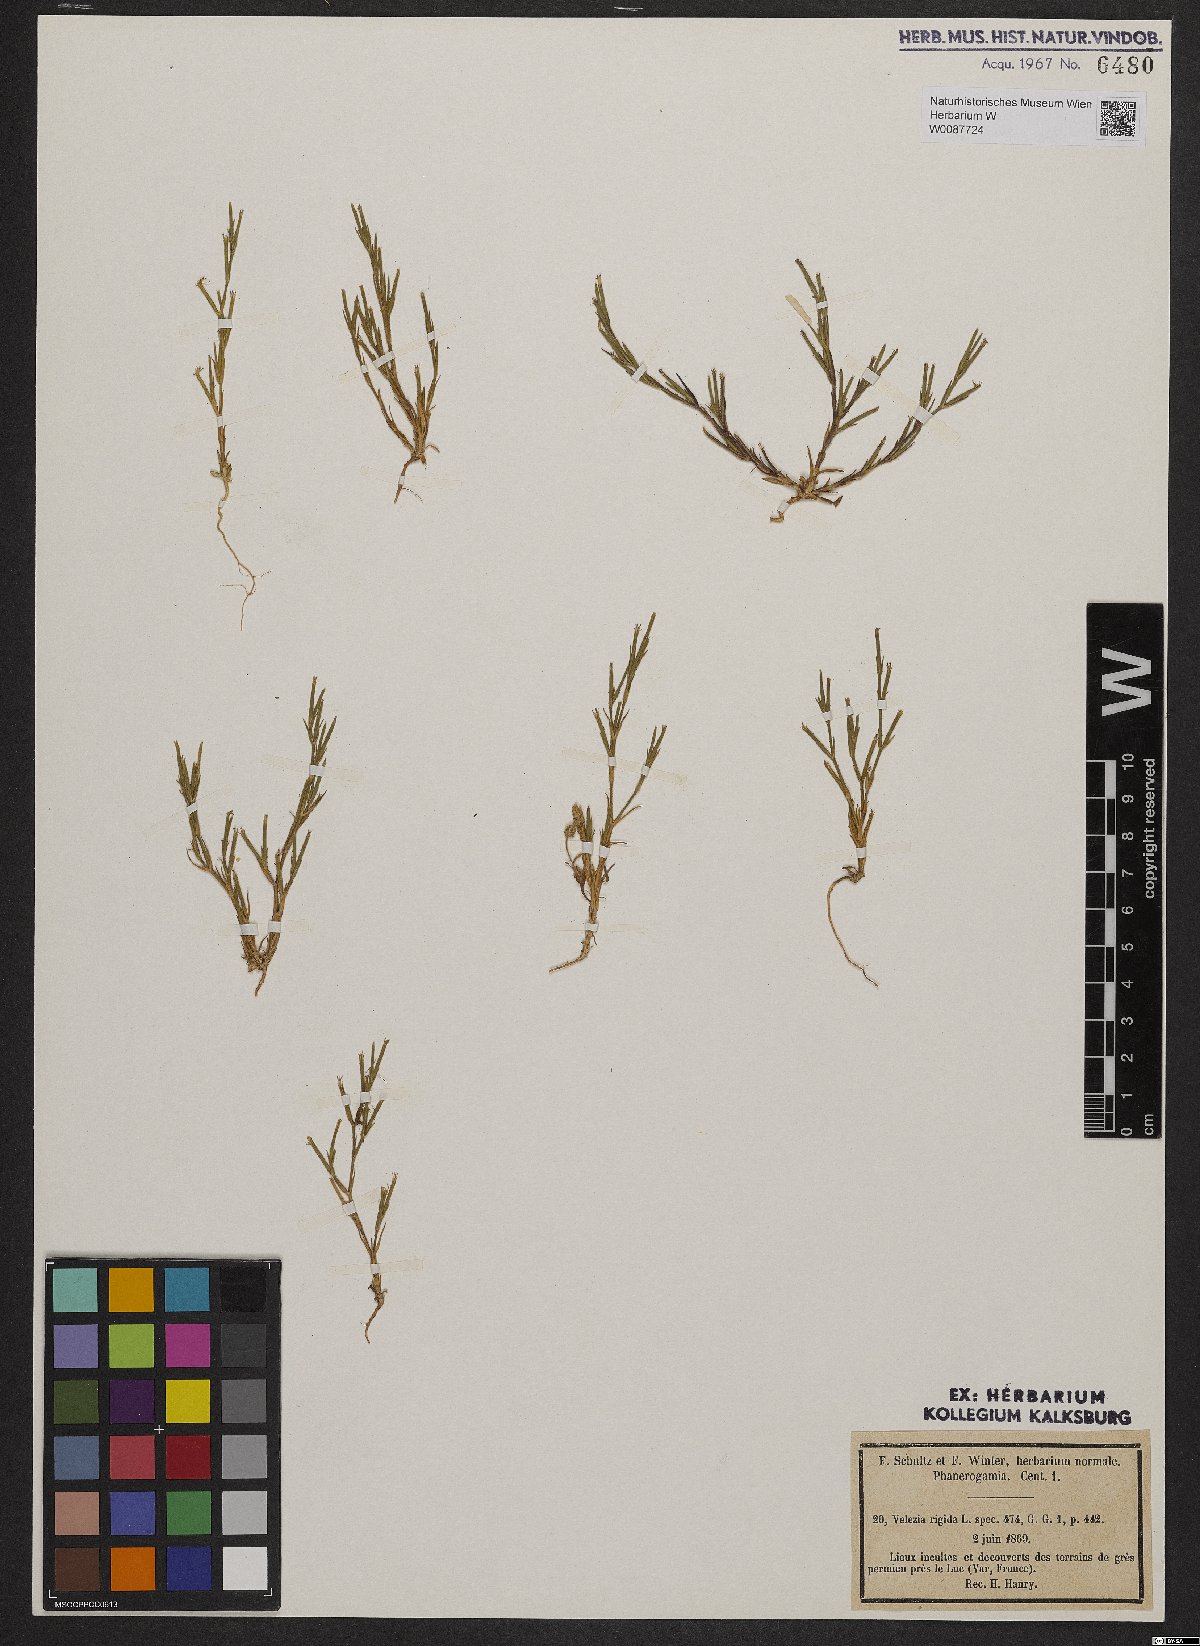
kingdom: Plantae
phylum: Tracheophyta
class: Magnoliopsida
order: Caryophyllales
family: Caryophyllaceae
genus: Dianthus
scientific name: Dianthus nudiflorus
